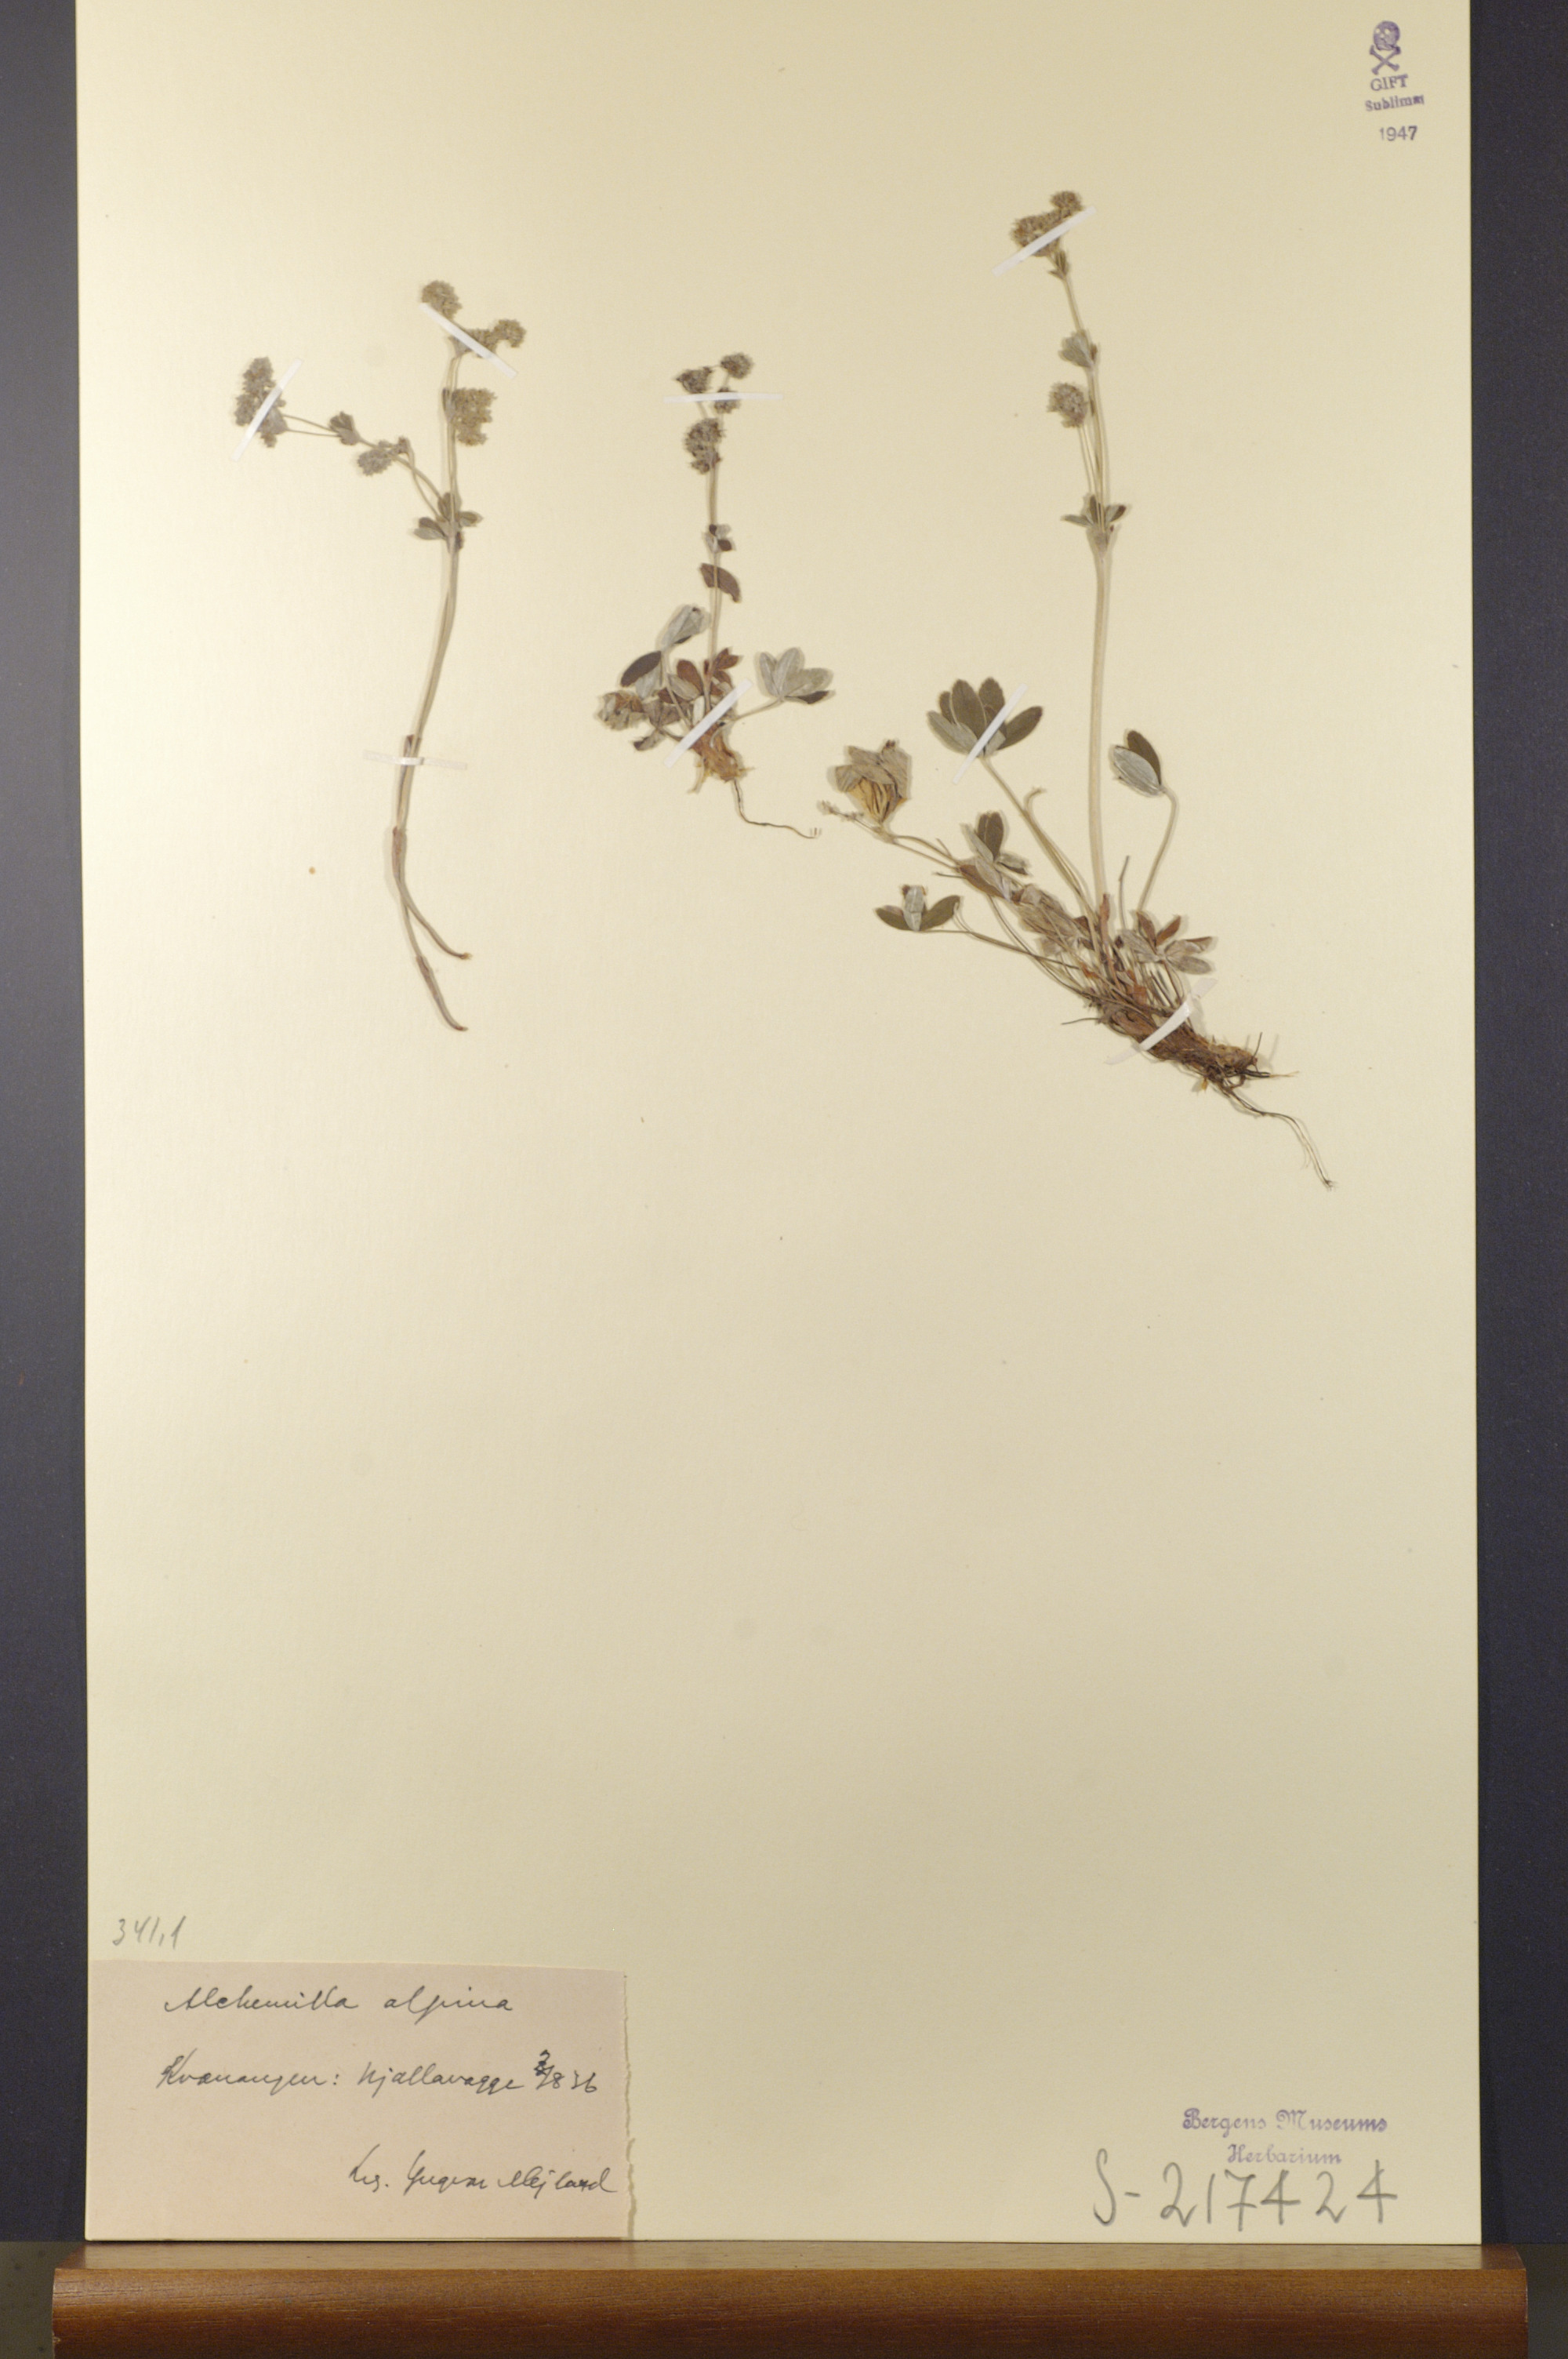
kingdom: Plantae
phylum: Tracheophyta
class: Magnoliopsida
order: Rosales
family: Rosaceae
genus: Alchemilla
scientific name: Alchemilla alpina
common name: Alpine lady's-mantle
